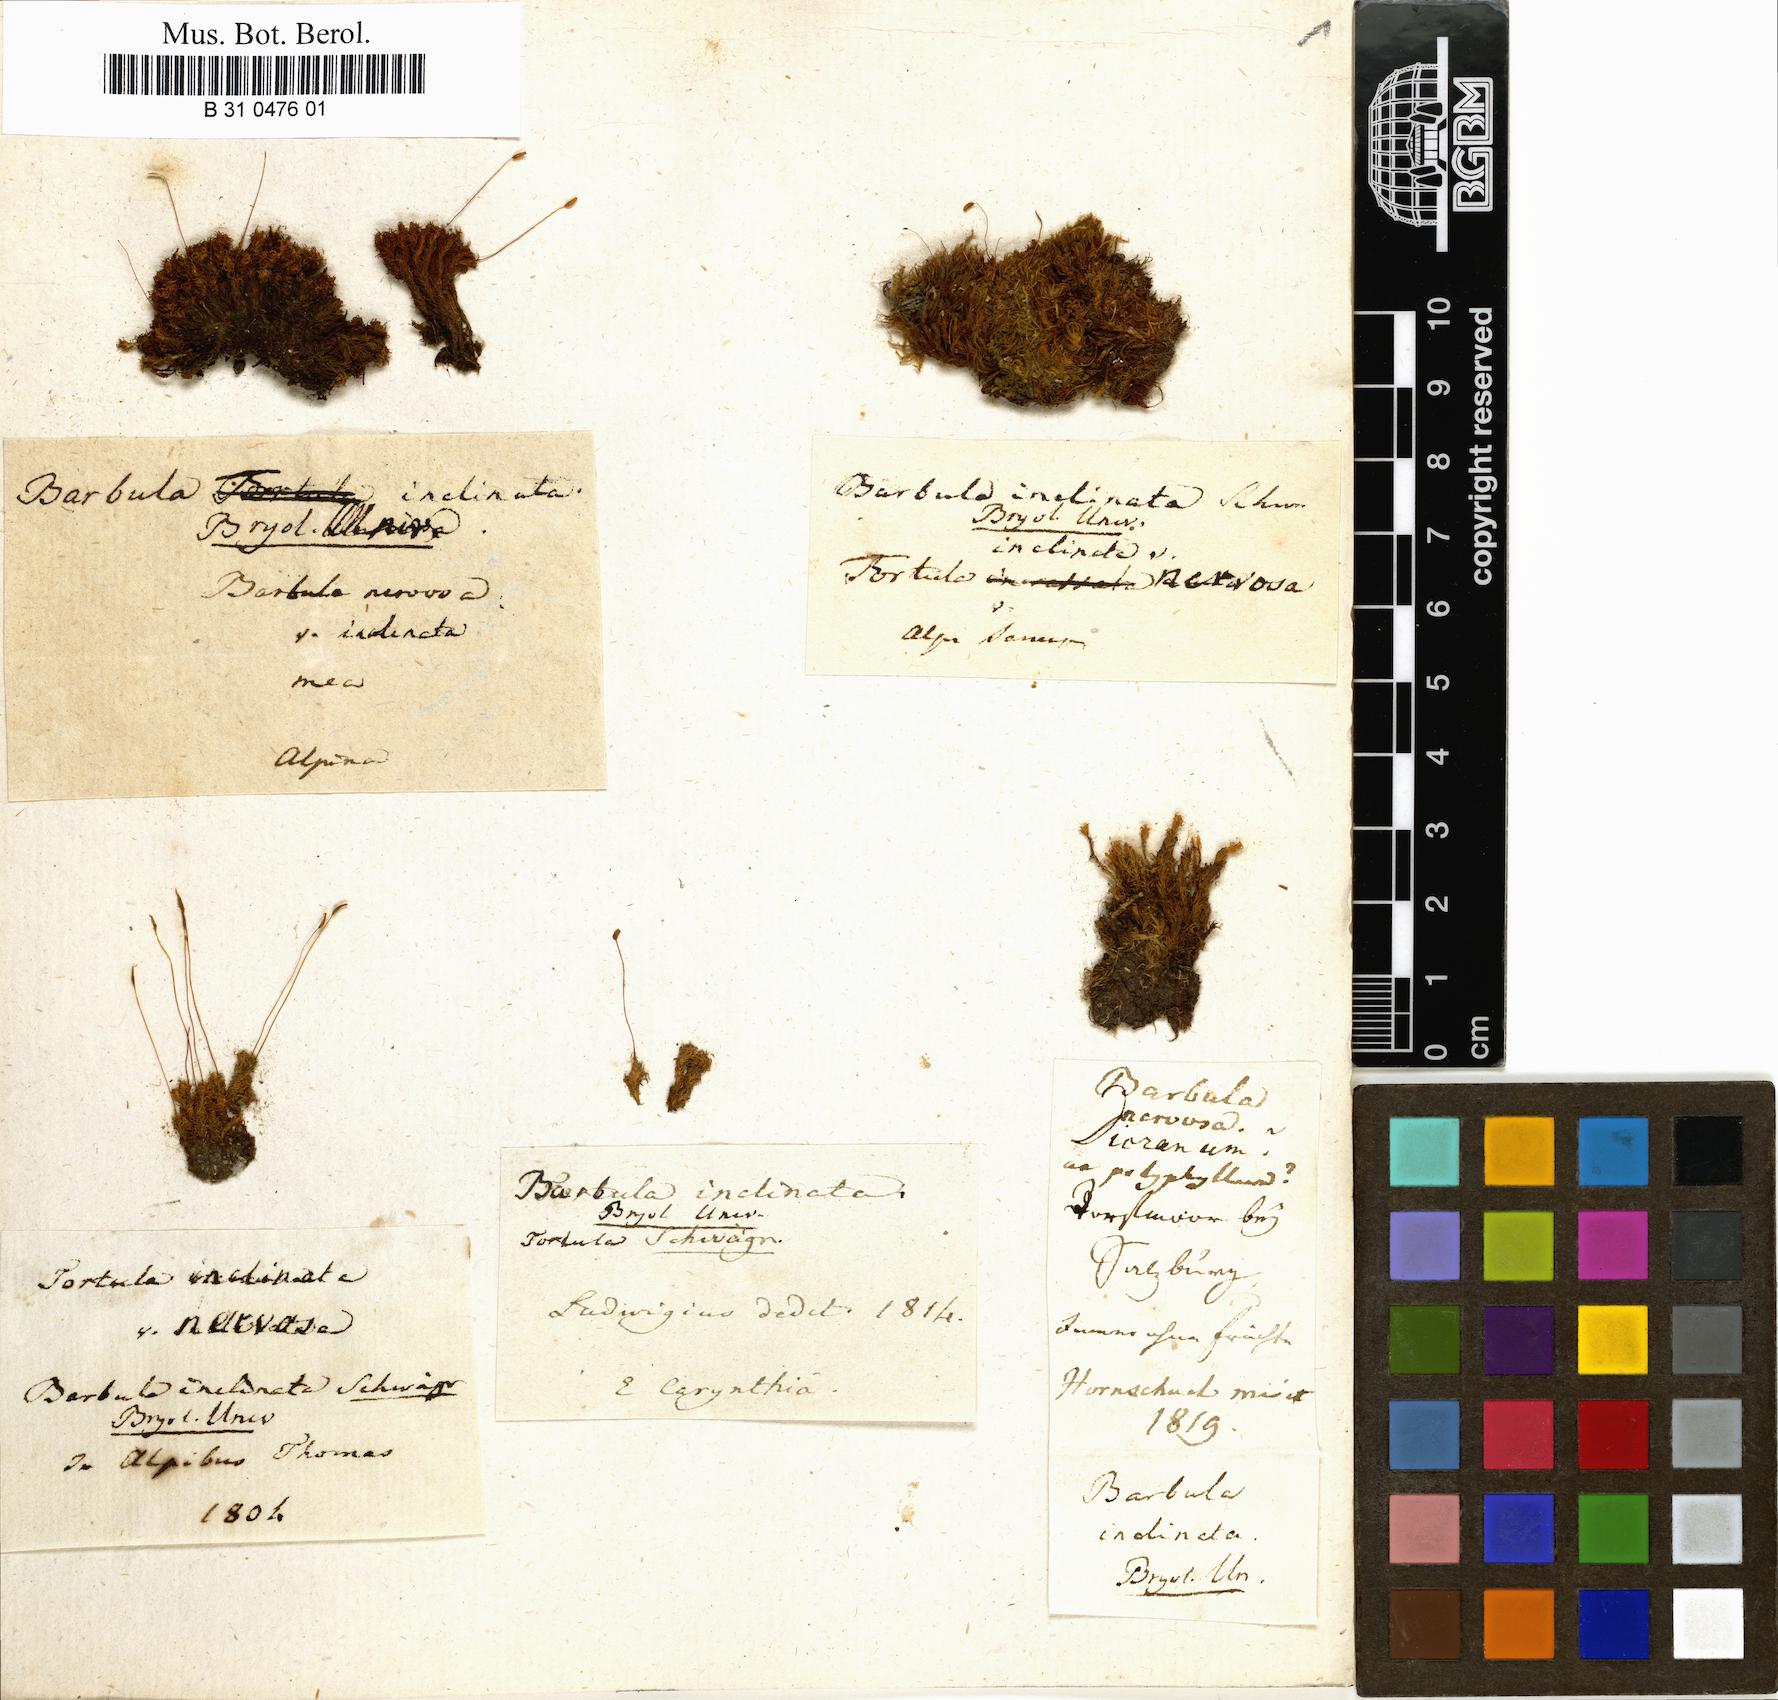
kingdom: Plantae
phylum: Bryophyta
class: Bryopsida
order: Pottiales
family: Pottiaceae
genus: Tortella
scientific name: Tortella inclinata
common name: Inclined twisted moss
